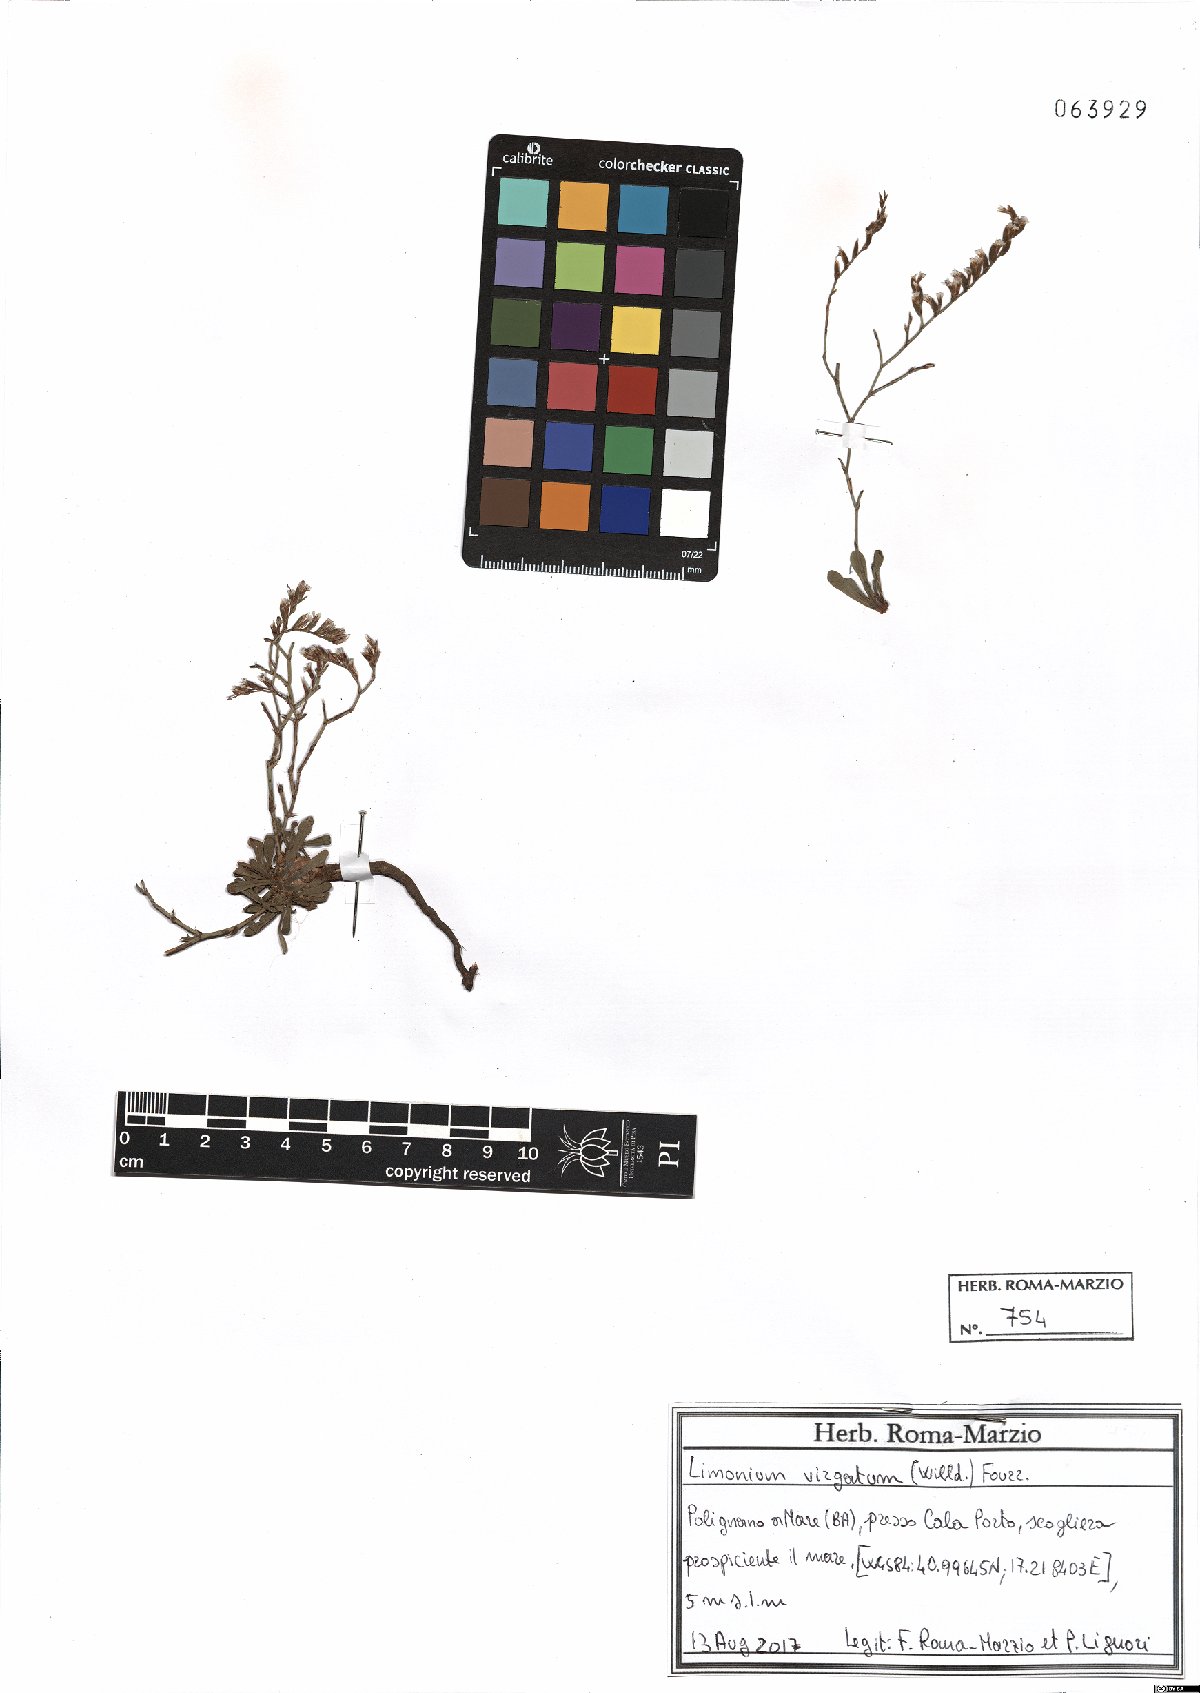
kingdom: Plantae
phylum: Tracheophyta
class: Magnoliopsida
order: Caryophyllales
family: Plumbaginaceae
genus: Limonium
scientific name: Limonium virgatum
